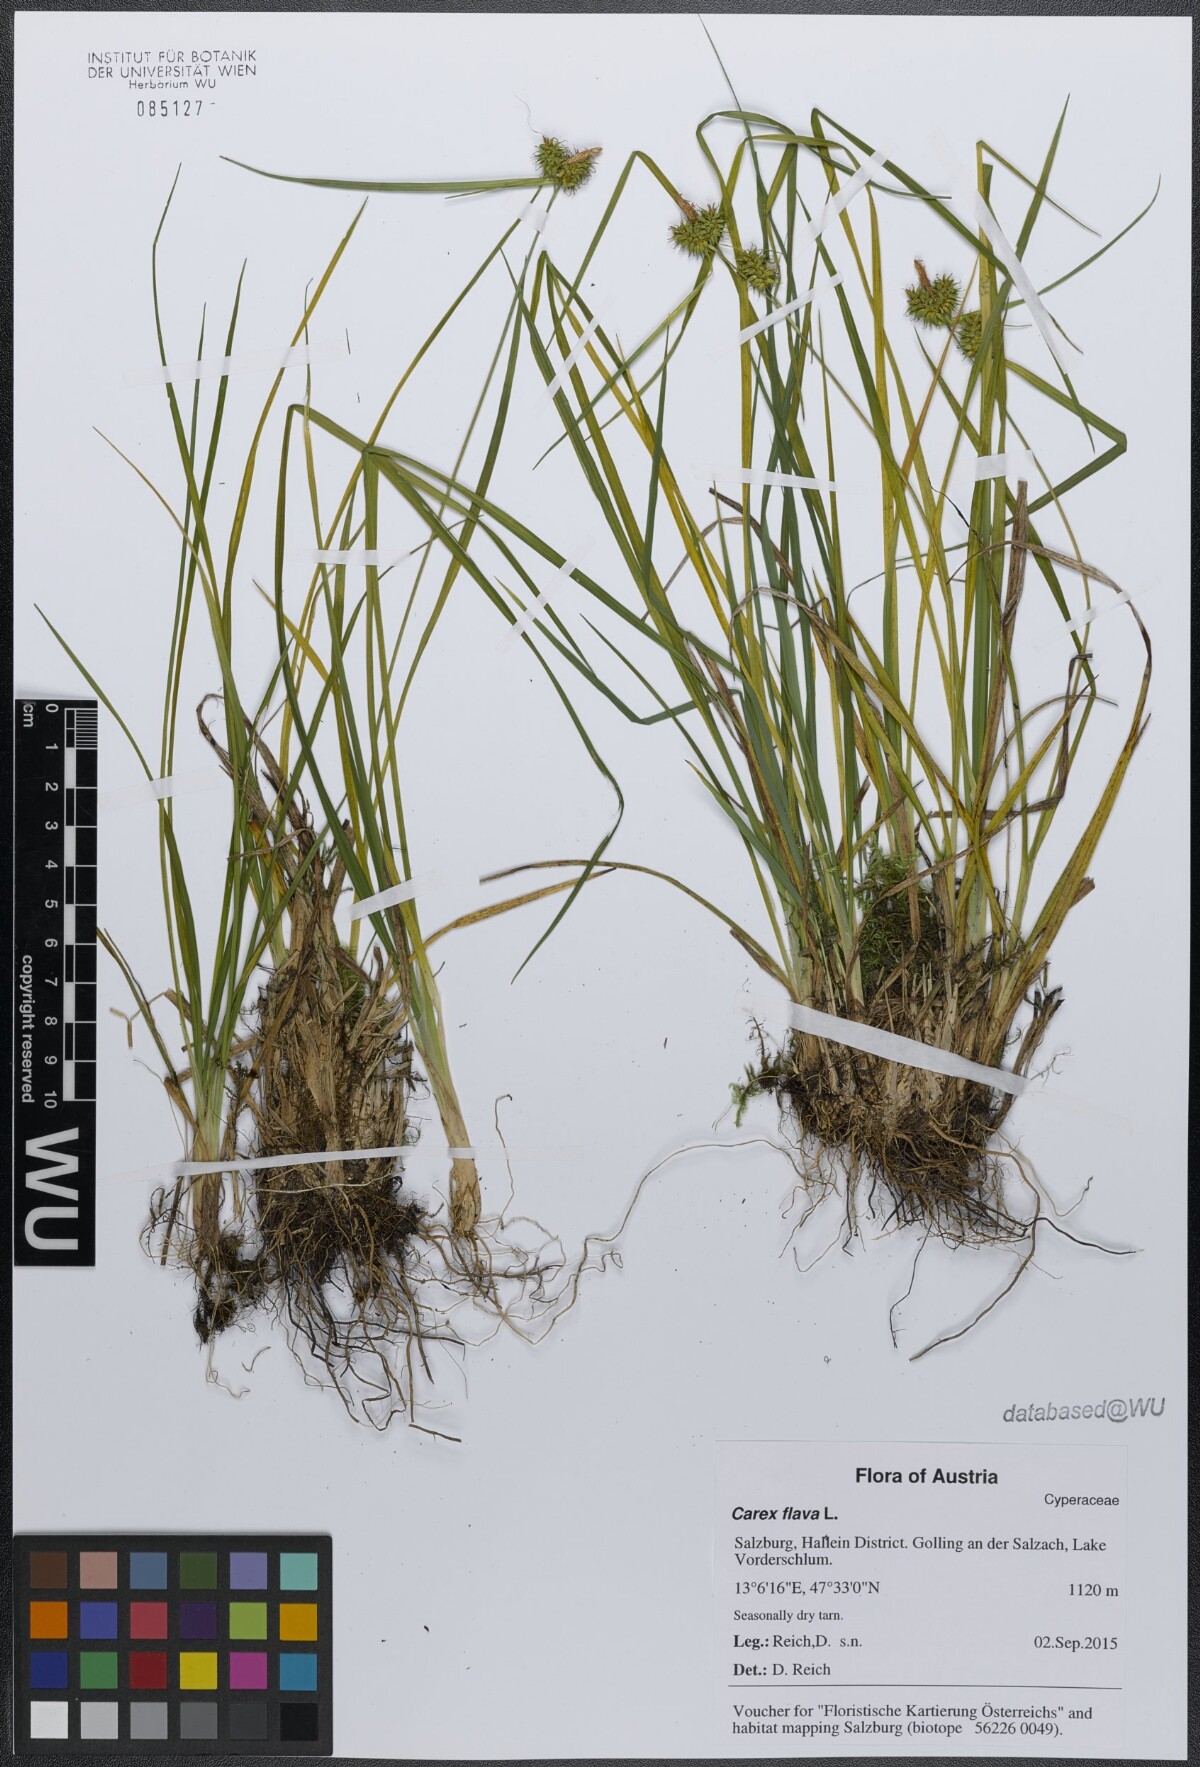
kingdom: Plantae
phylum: Tracheophyta
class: Liliopsida
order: Poales
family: Cyperaceae
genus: Carex
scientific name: Carex flava
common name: Large yellow-sedge
